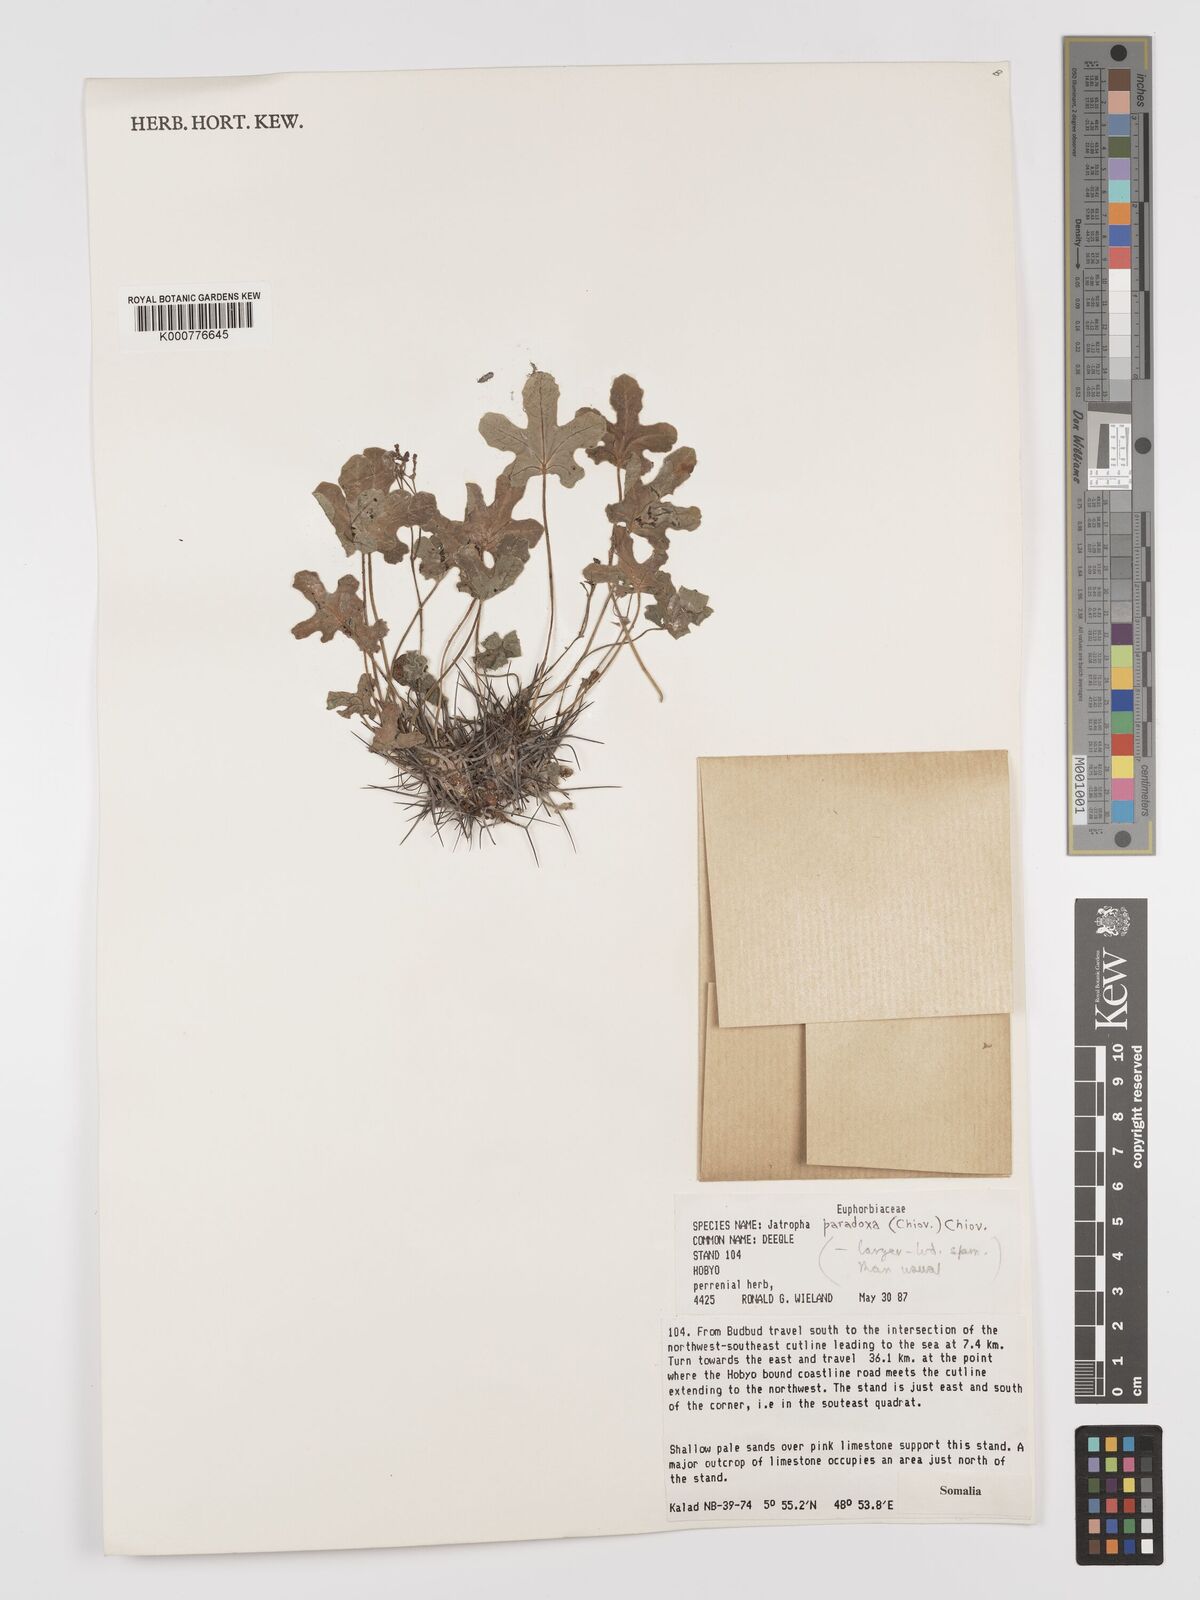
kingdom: Plantae
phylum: Tracheophyta
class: Magnoliopsida
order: Malpighiales
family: Euphorbiaceae
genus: Jatropha
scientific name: Jatropha paradoxa
